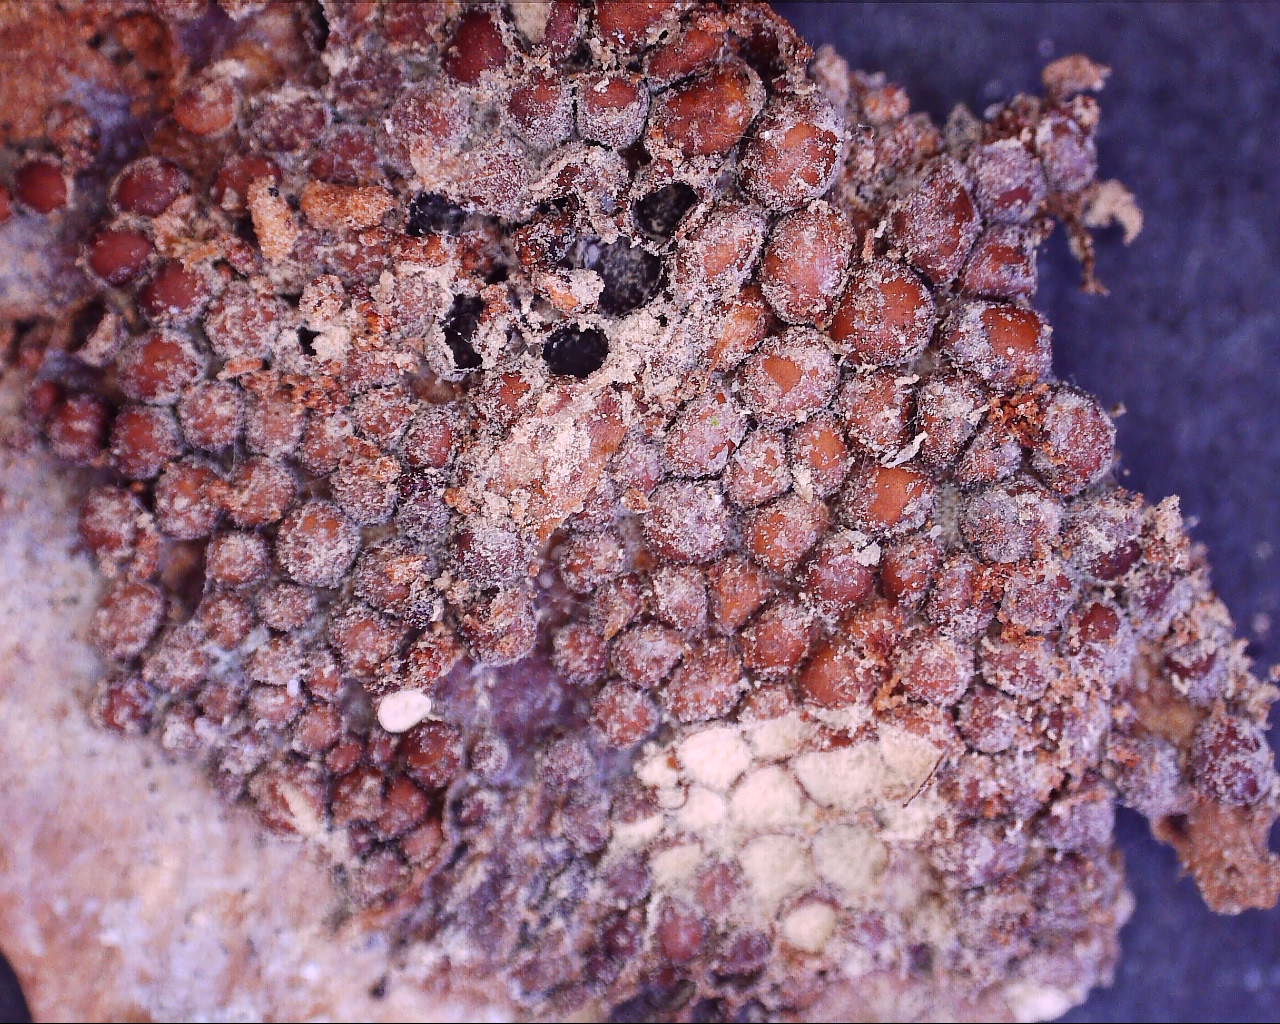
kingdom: Fungi
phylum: Basidiomycota
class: Pucciniomycetes
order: Pucciniales
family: Pucciniastraceae
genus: Thekopsora
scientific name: Thekopsora areolata
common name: grankogle-nålerust
